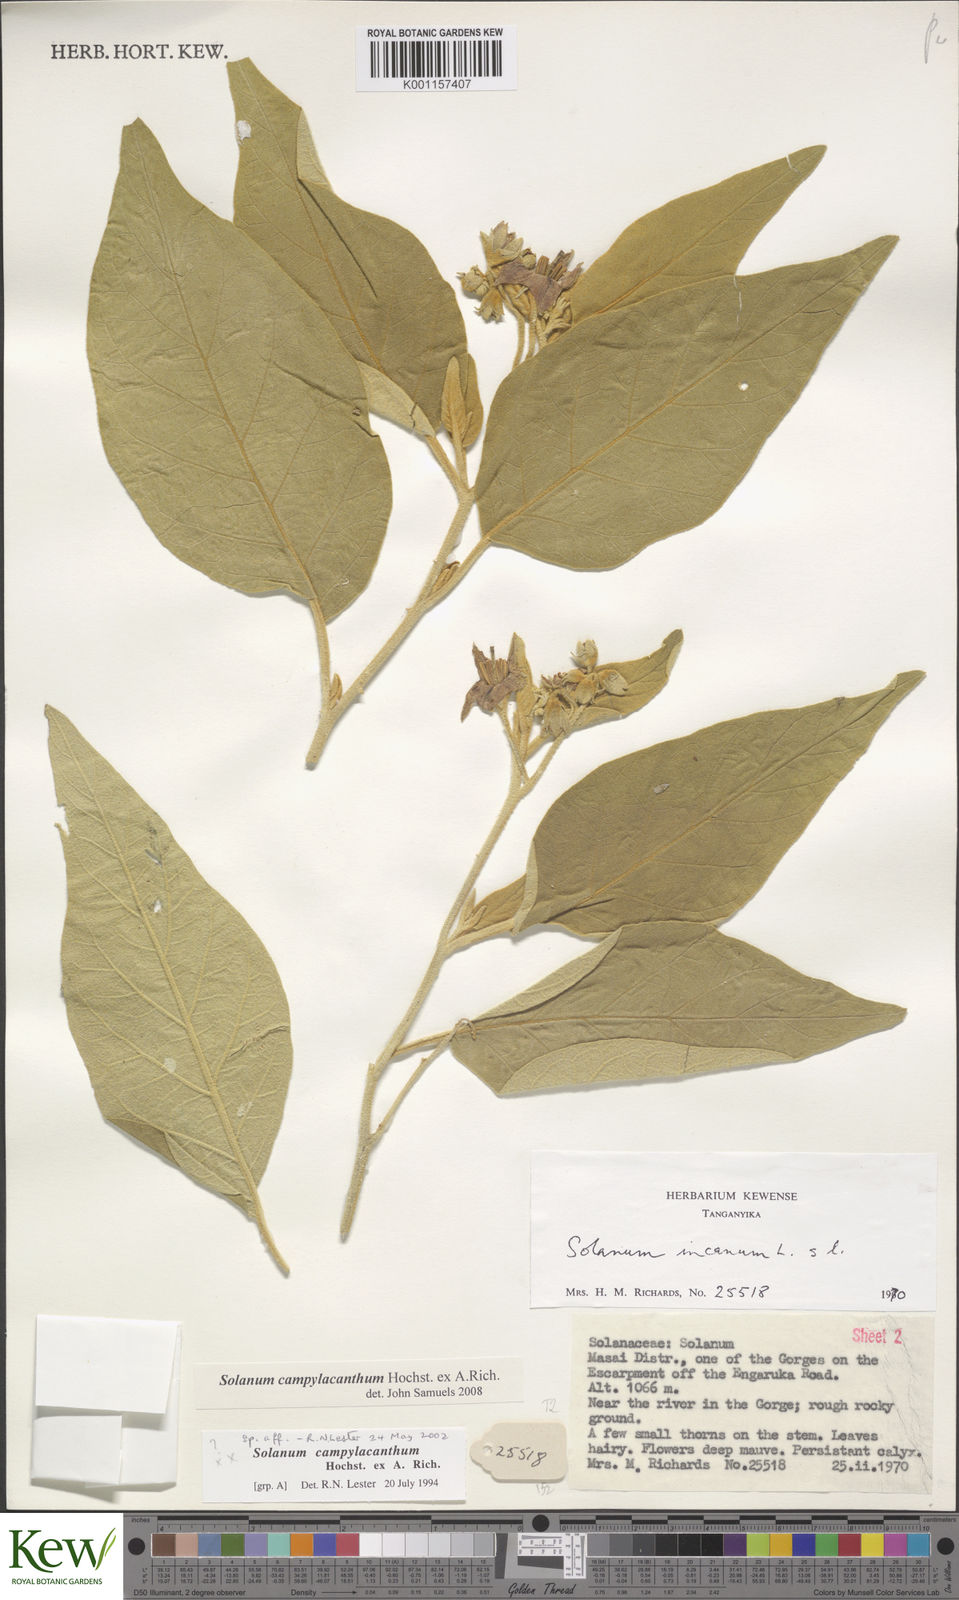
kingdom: Plantae
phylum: Tracheophyta
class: Magnoliopsida
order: Solanales
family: Solanaceae
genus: Solanum
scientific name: Solanum campylacanthum
